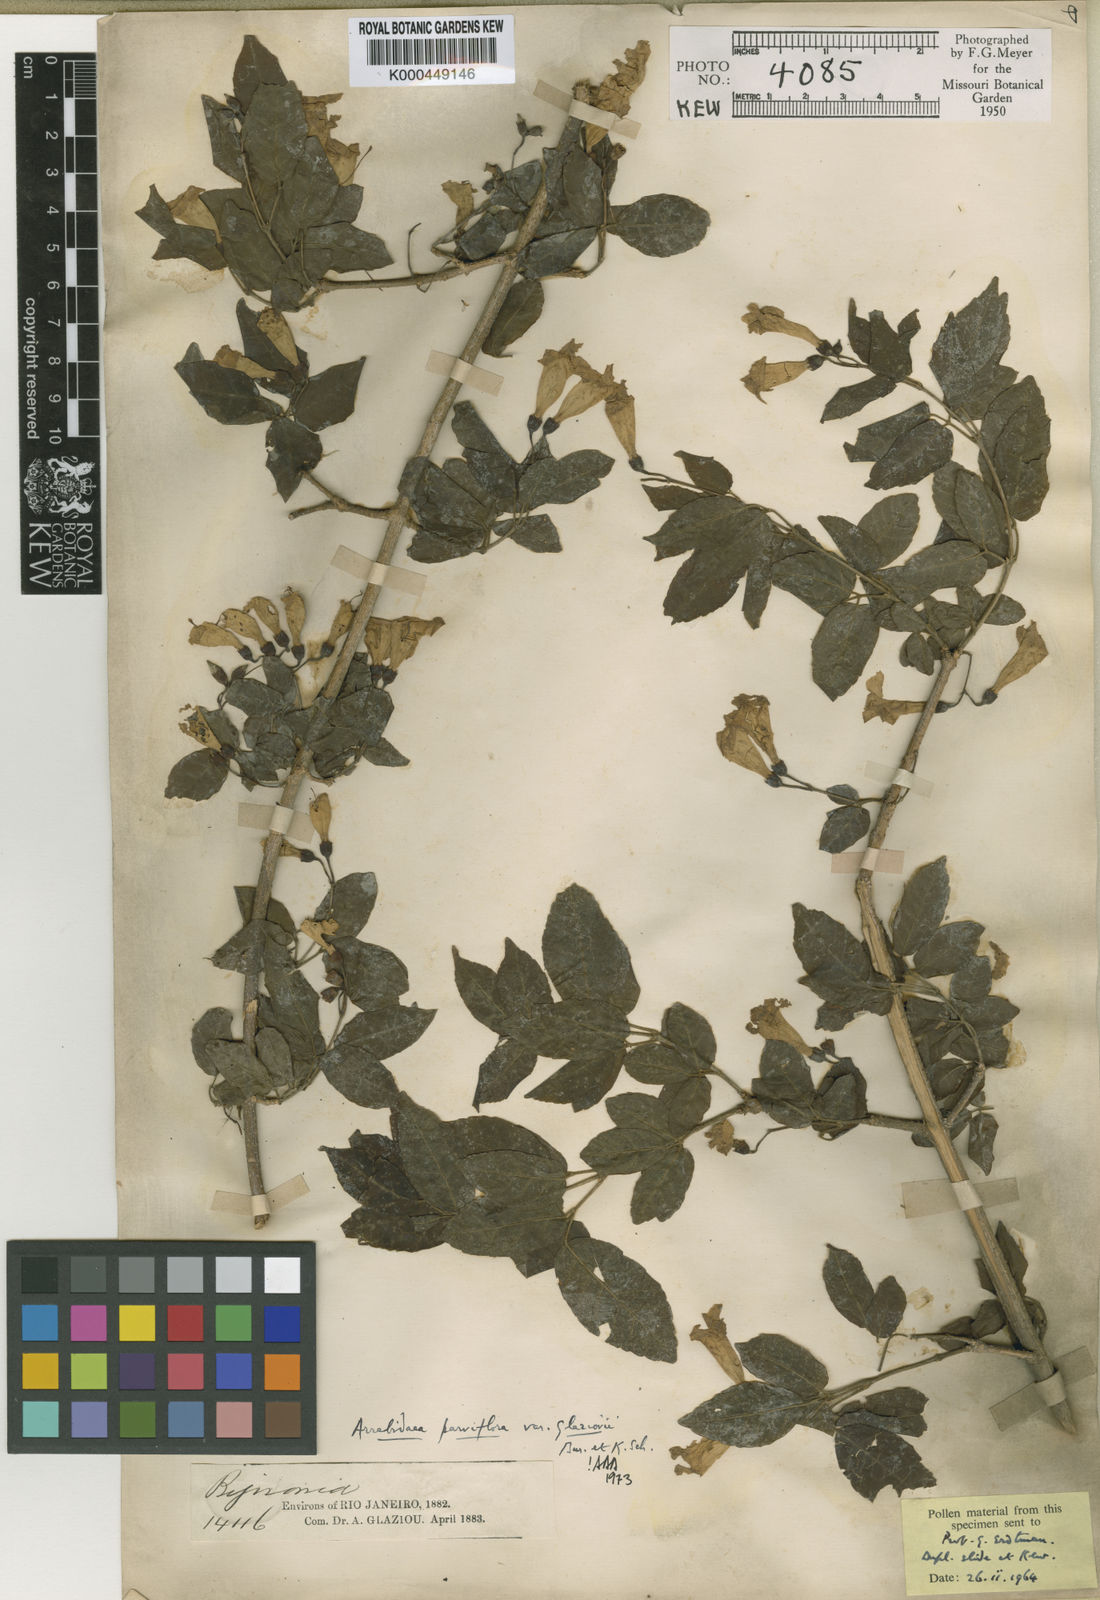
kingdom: Plantae
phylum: Tracheophyta
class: Magnoliopsida
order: Lamiales
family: Bignoniaceae
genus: Tanaecium
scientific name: Tanaecium pyramidatum
